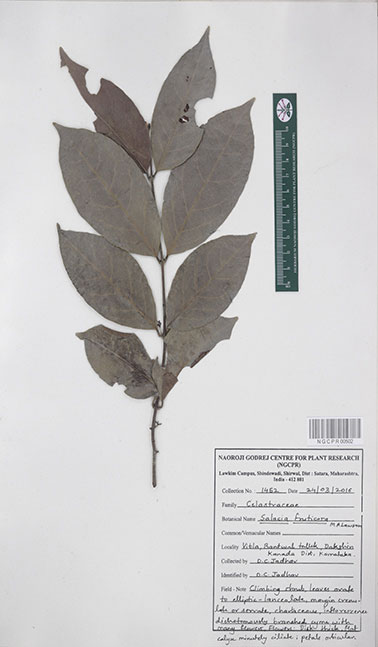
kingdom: Plantae
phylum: Tracheophyta
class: Magnoliopsida
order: Celastrales
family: Celastraceae
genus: Salacia
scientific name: Salacia fruticosa
